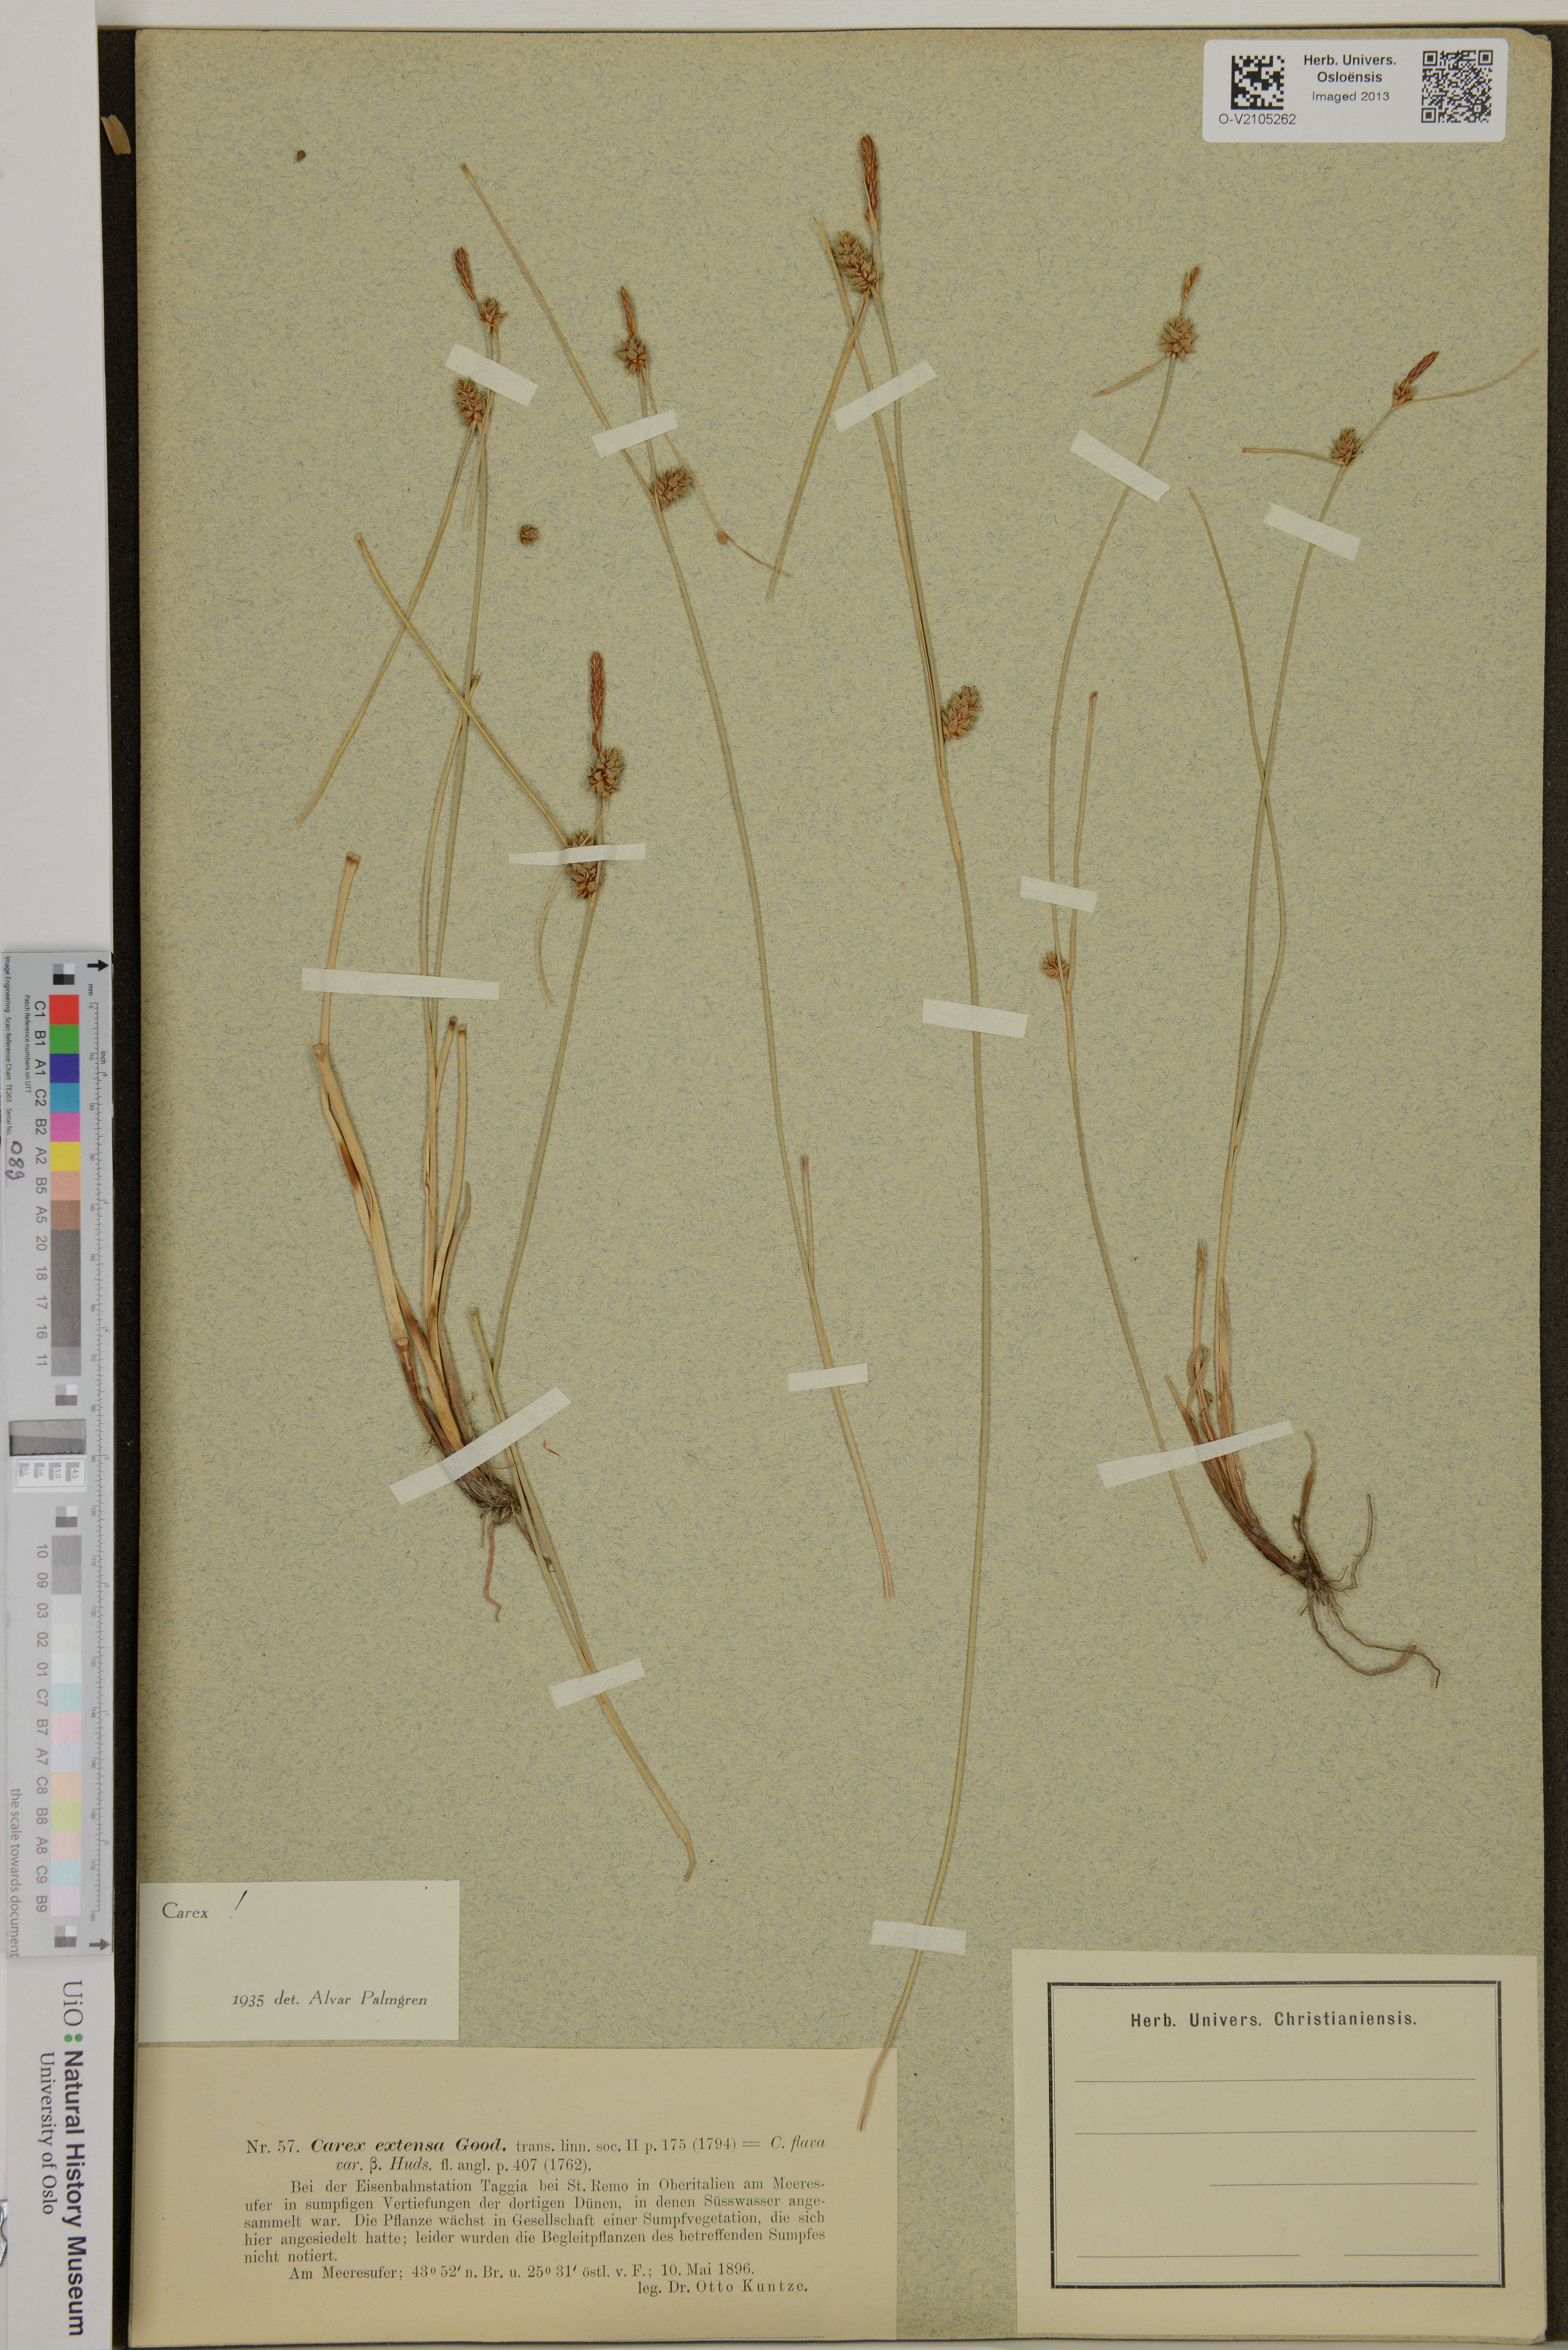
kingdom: Plantae
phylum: Tracheophyta
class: Liliopsida
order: Poales
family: Cyperaceae
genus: Carex
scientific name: Carex extensa
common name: Long-bracted sedge
